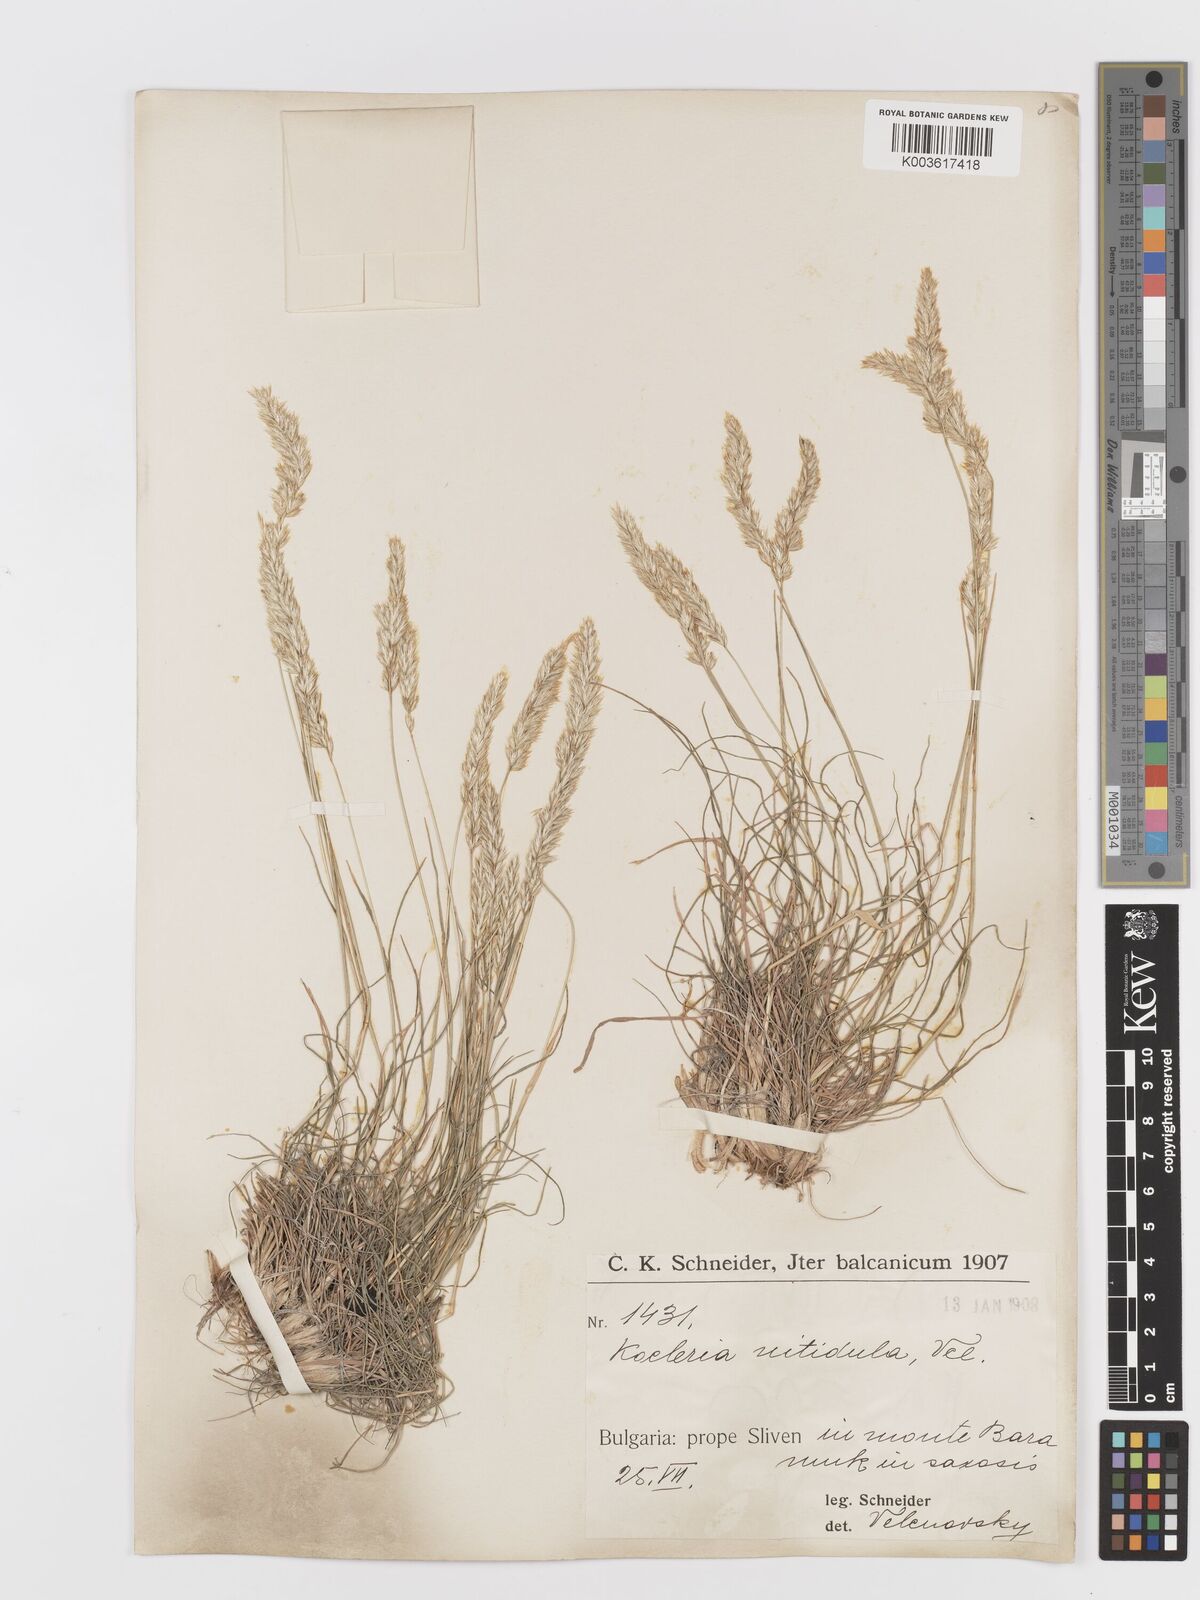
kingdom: Plantae
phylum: Tracheophyta
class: Liliopsida
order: Poales
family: Poaceae
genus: Koeleria
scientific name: Koeleria nitidula
